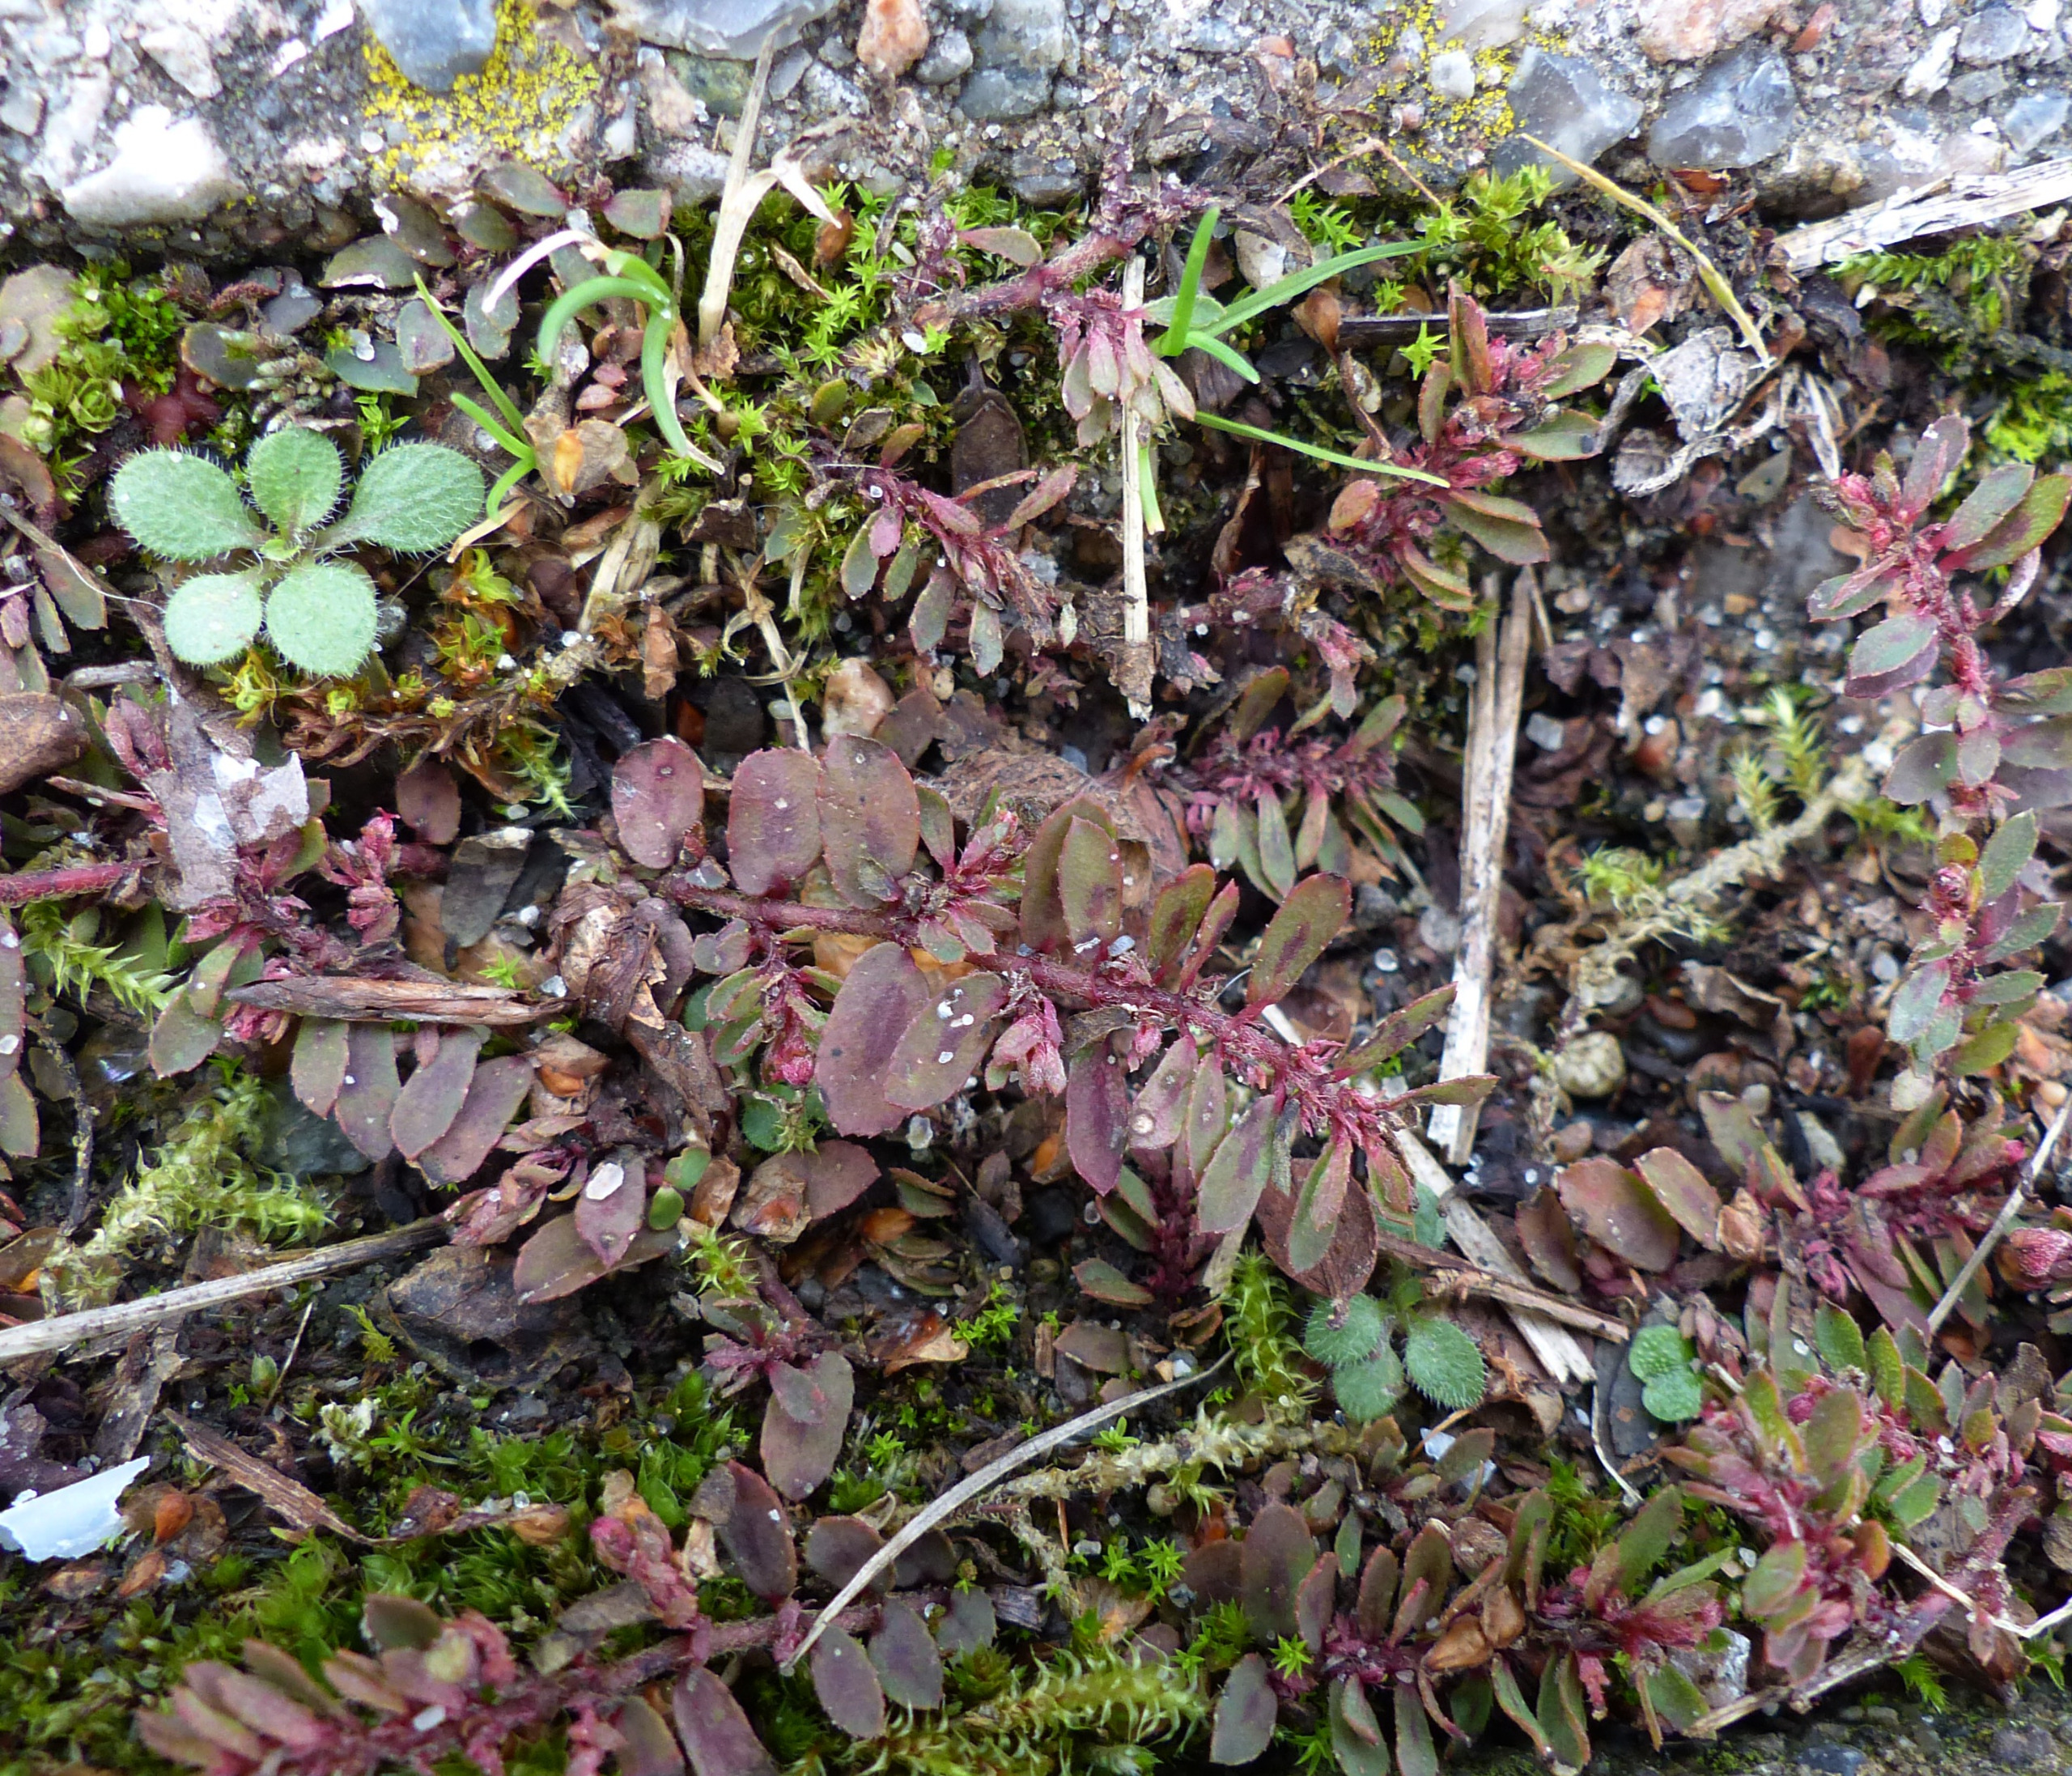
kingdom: Plantae
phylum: Tracheophyta
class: Magnoliopsida
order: Malpighiales
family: Euphorbiaceae
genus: Euphorbia
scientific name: Euphorbia maculata
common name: Plet-vortemælk
